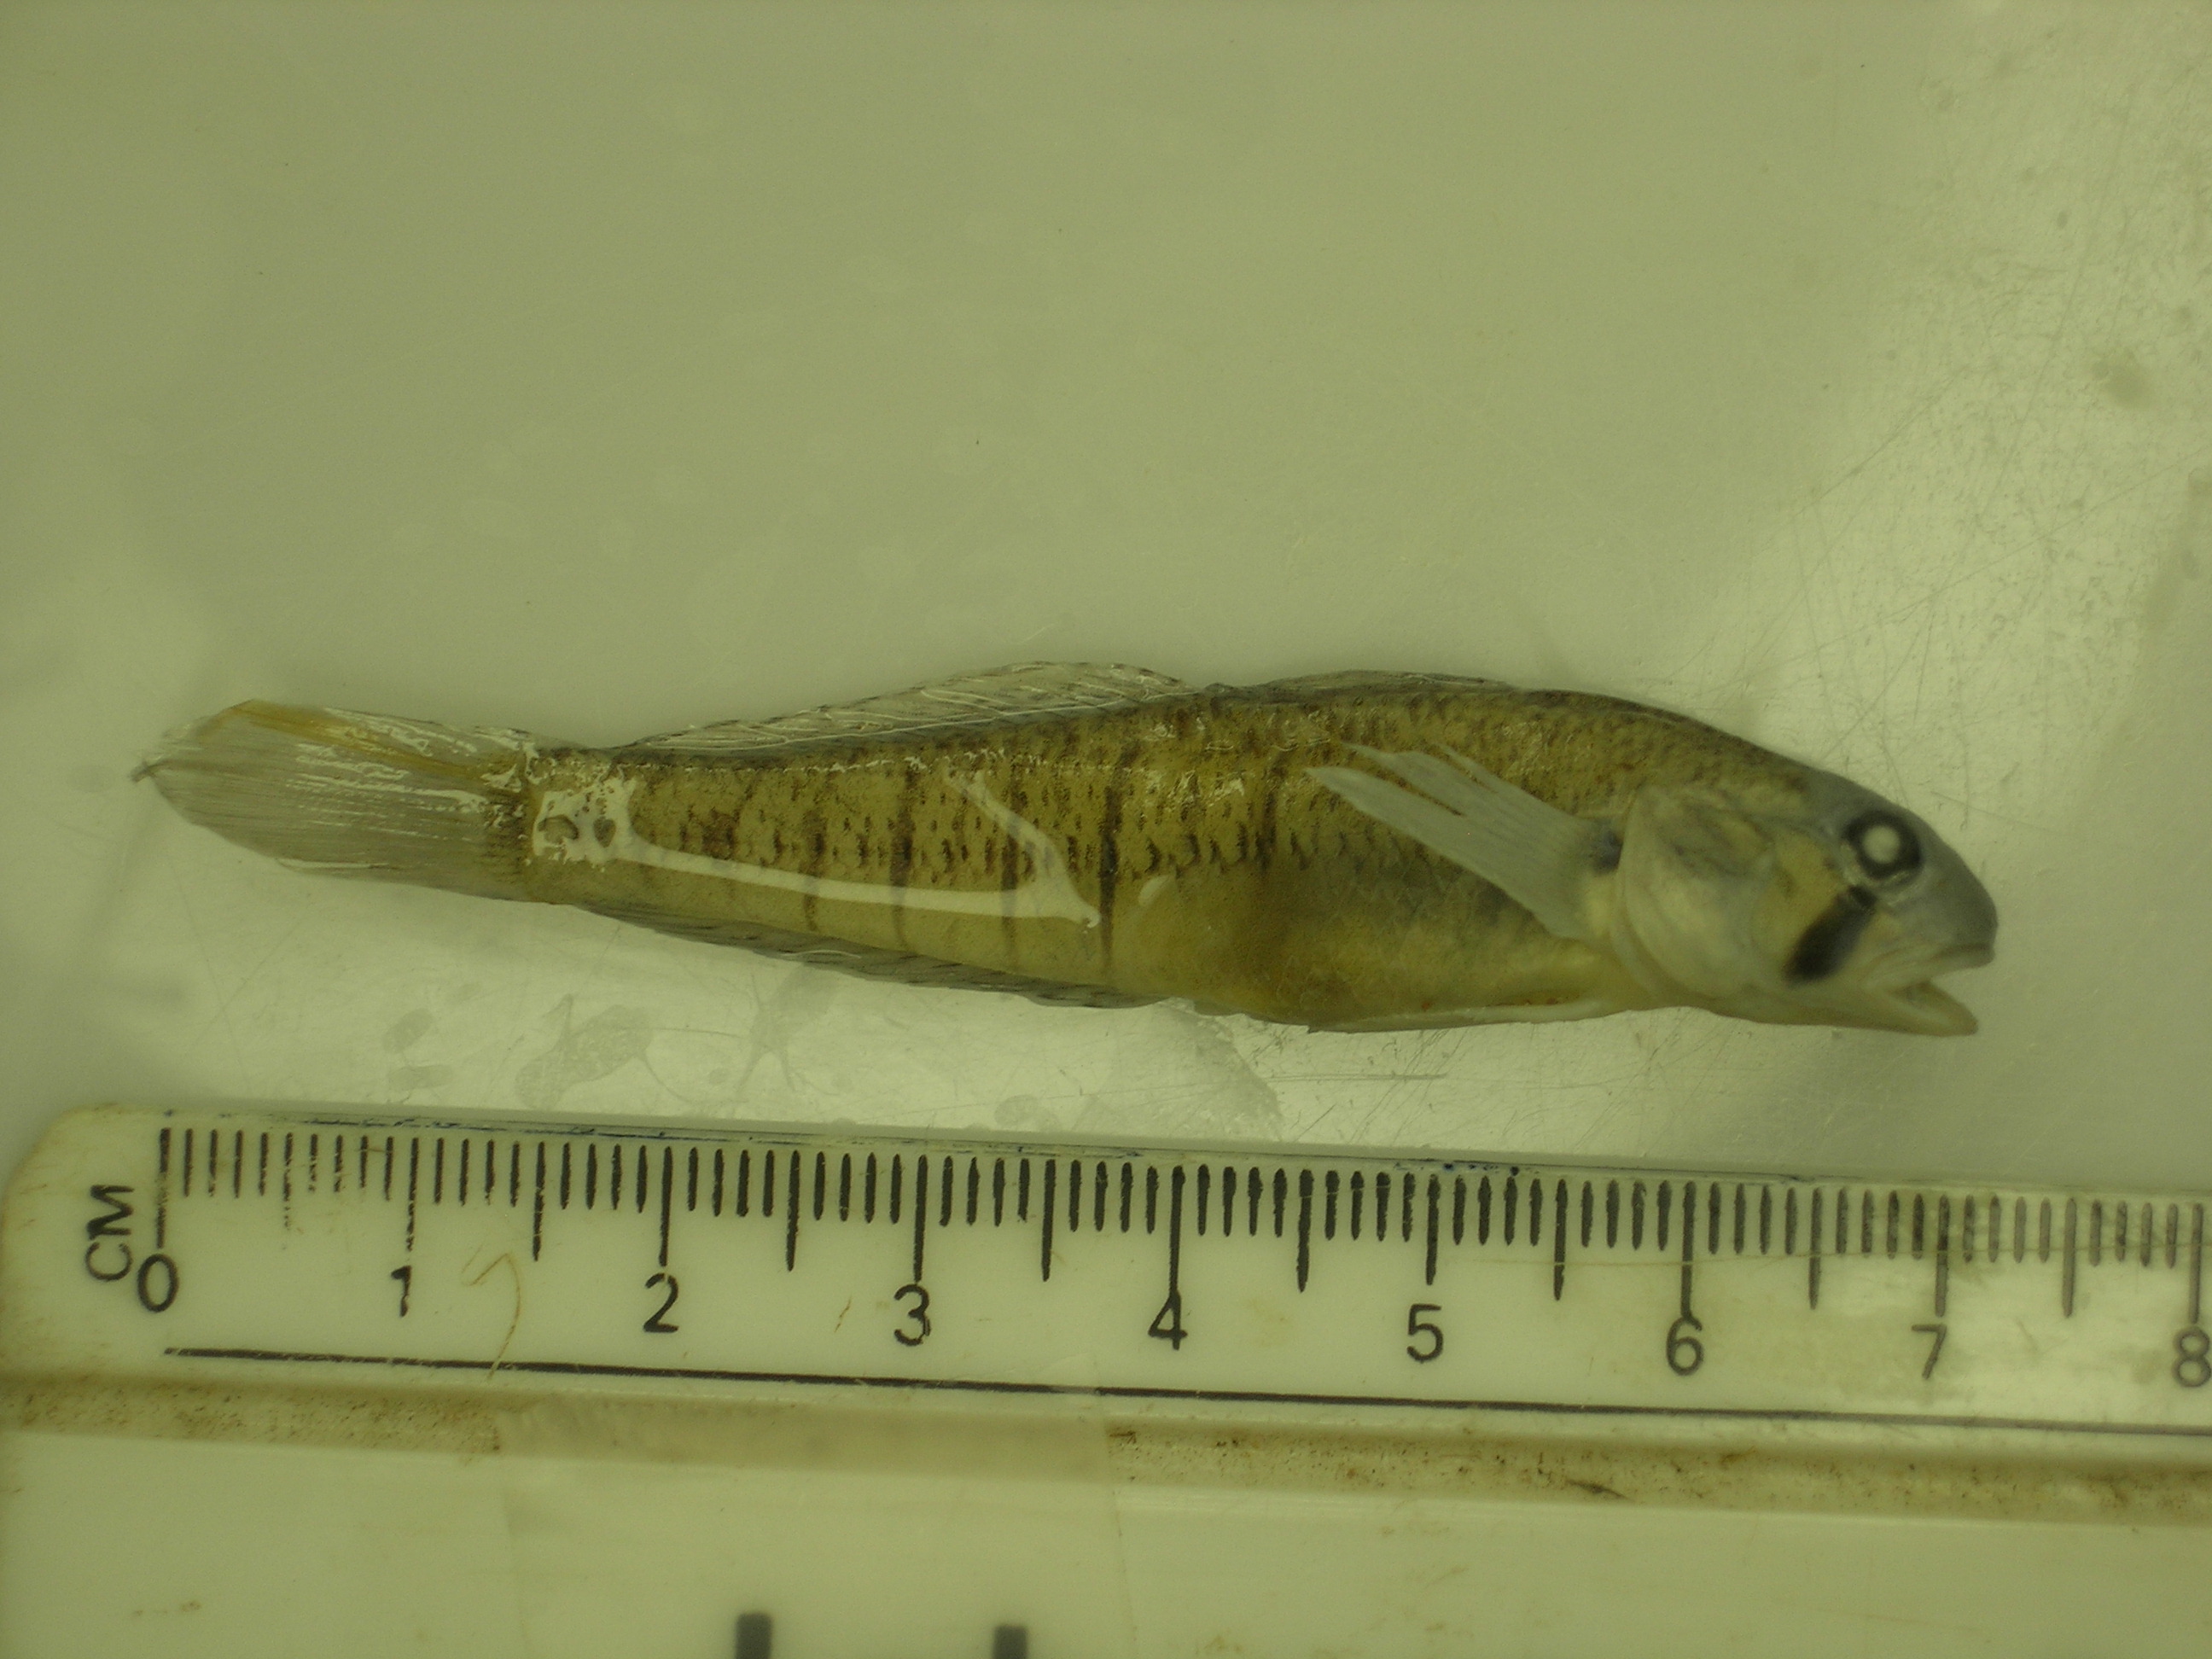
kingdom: Animalia
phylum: Chordata
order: Perciformes
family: Gobiidae
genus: Stenogobius
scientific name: Stenogobius polyzona
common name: Chinestripe goby
